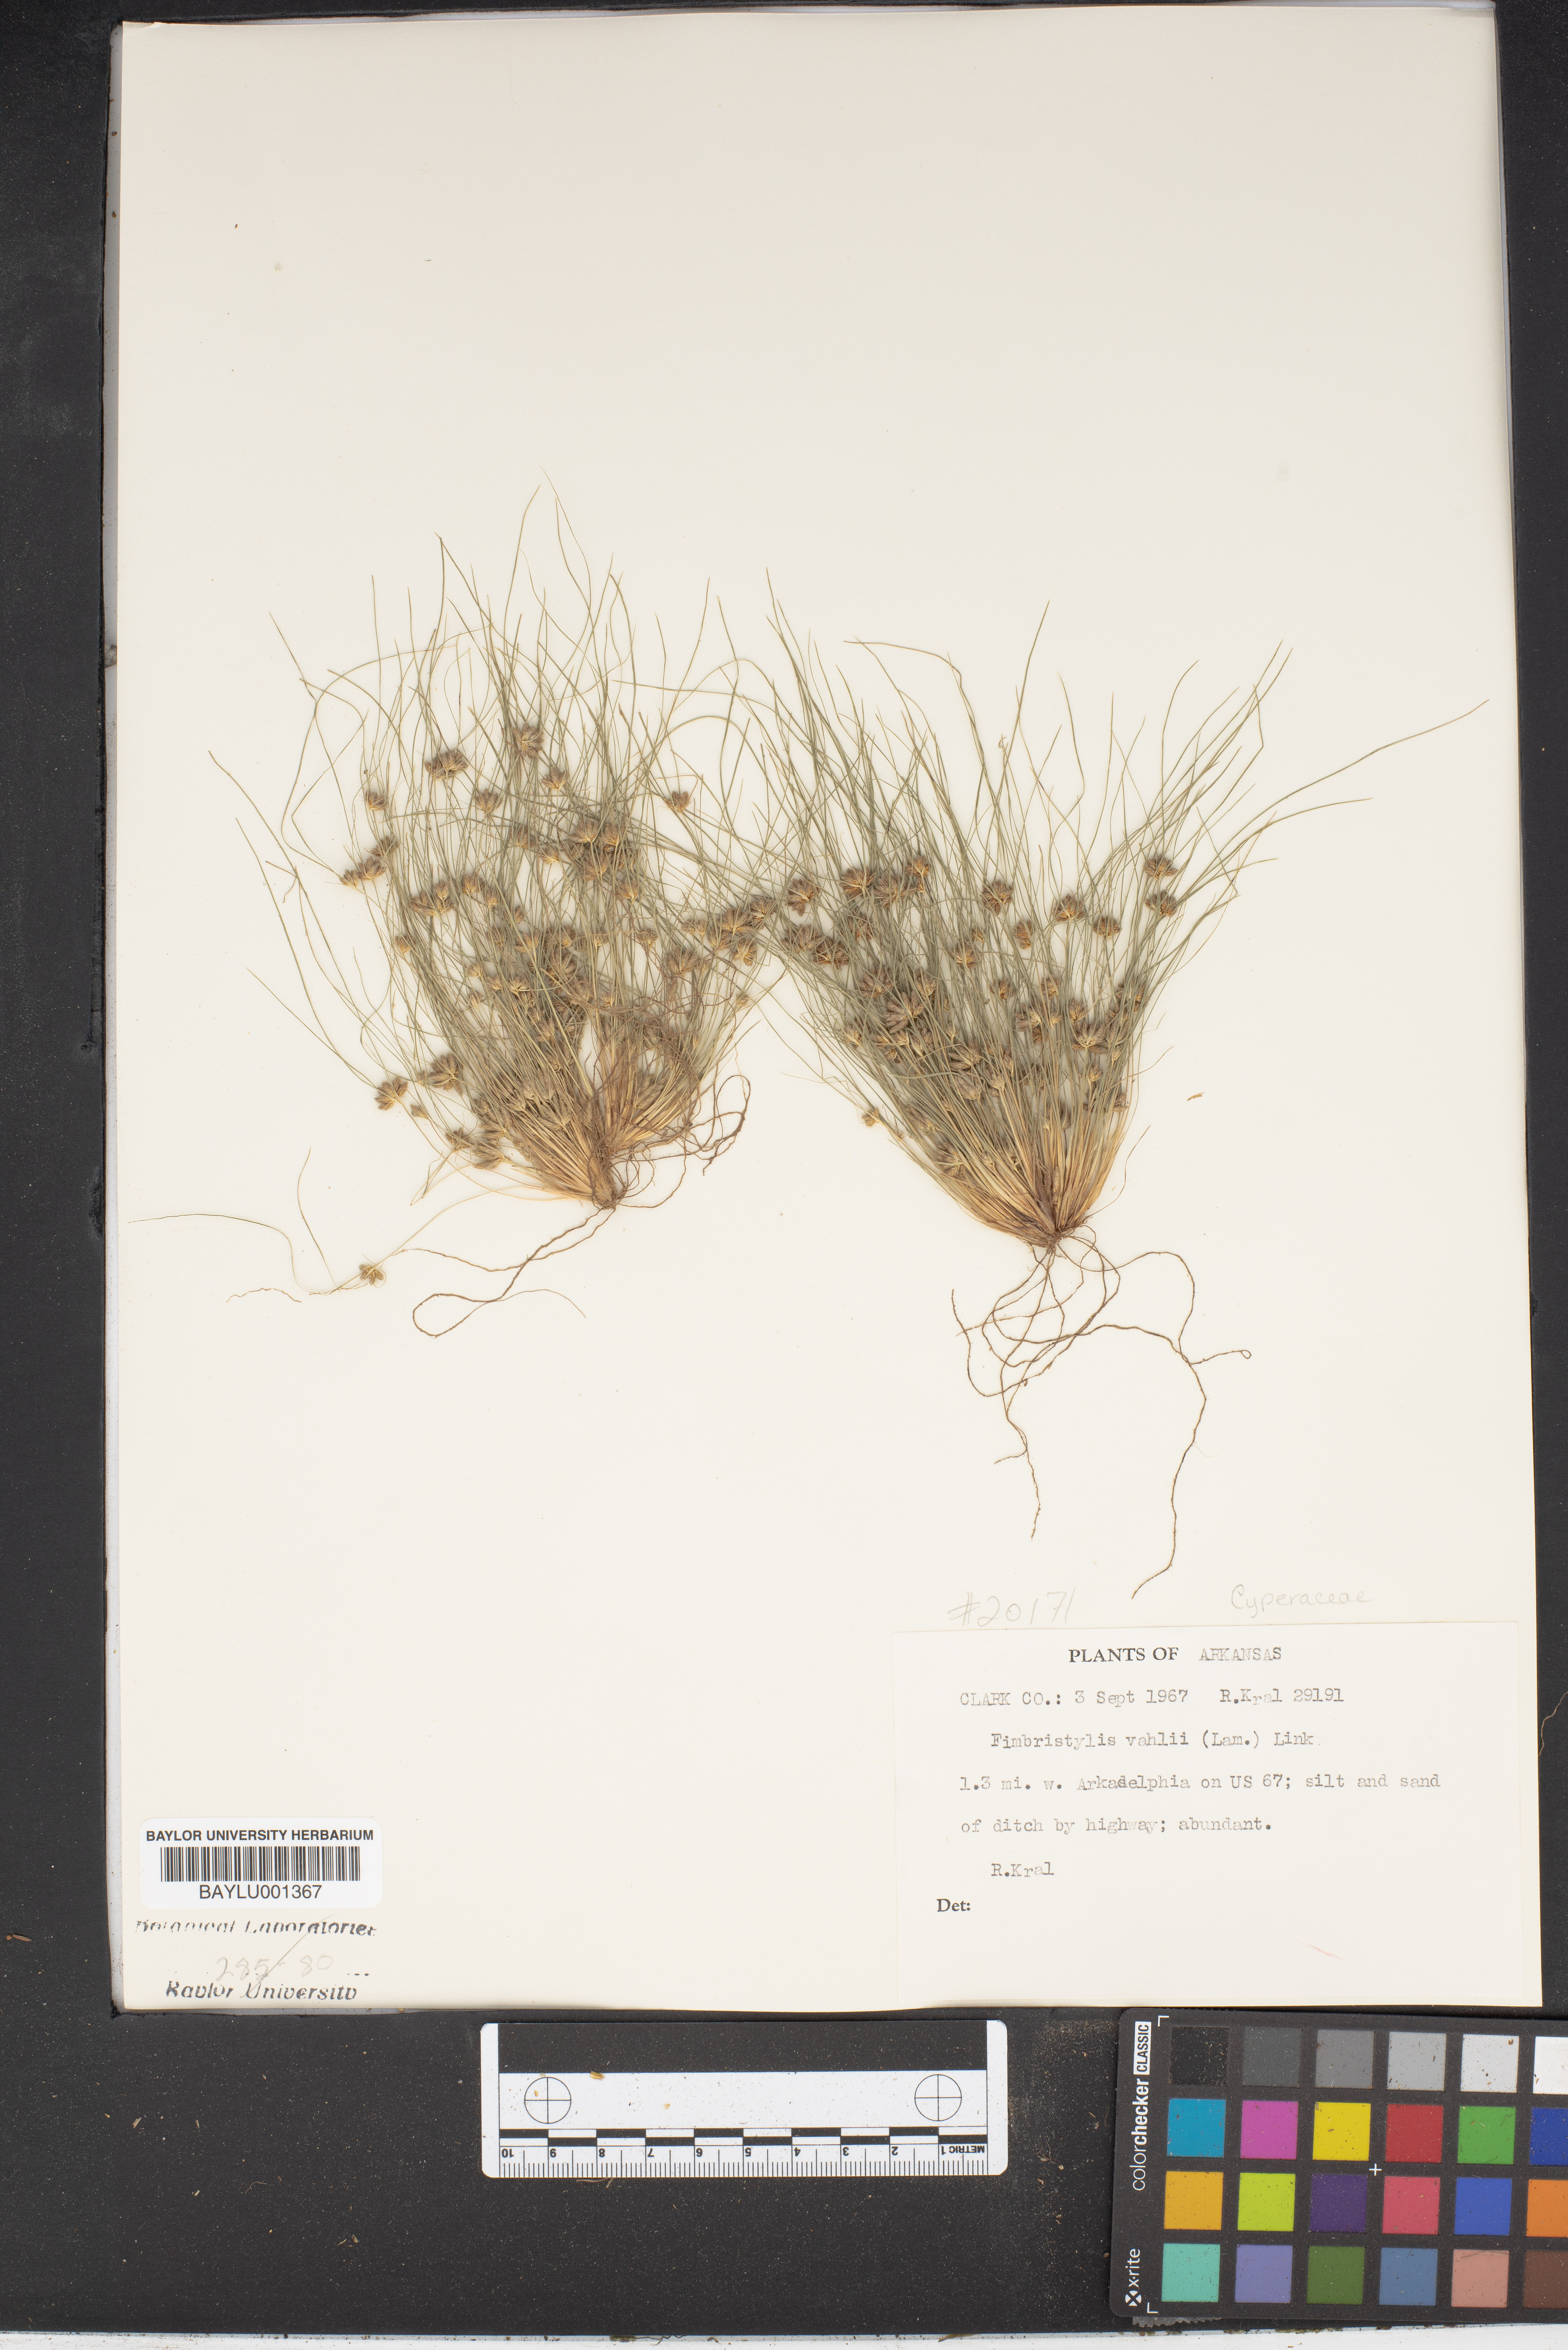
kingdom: Plantae
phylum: Tracheophyta
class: Liliopsida
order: Poales
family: Cyperaceae
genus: Fimbristylis
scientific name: Fimbristylis vahlii
